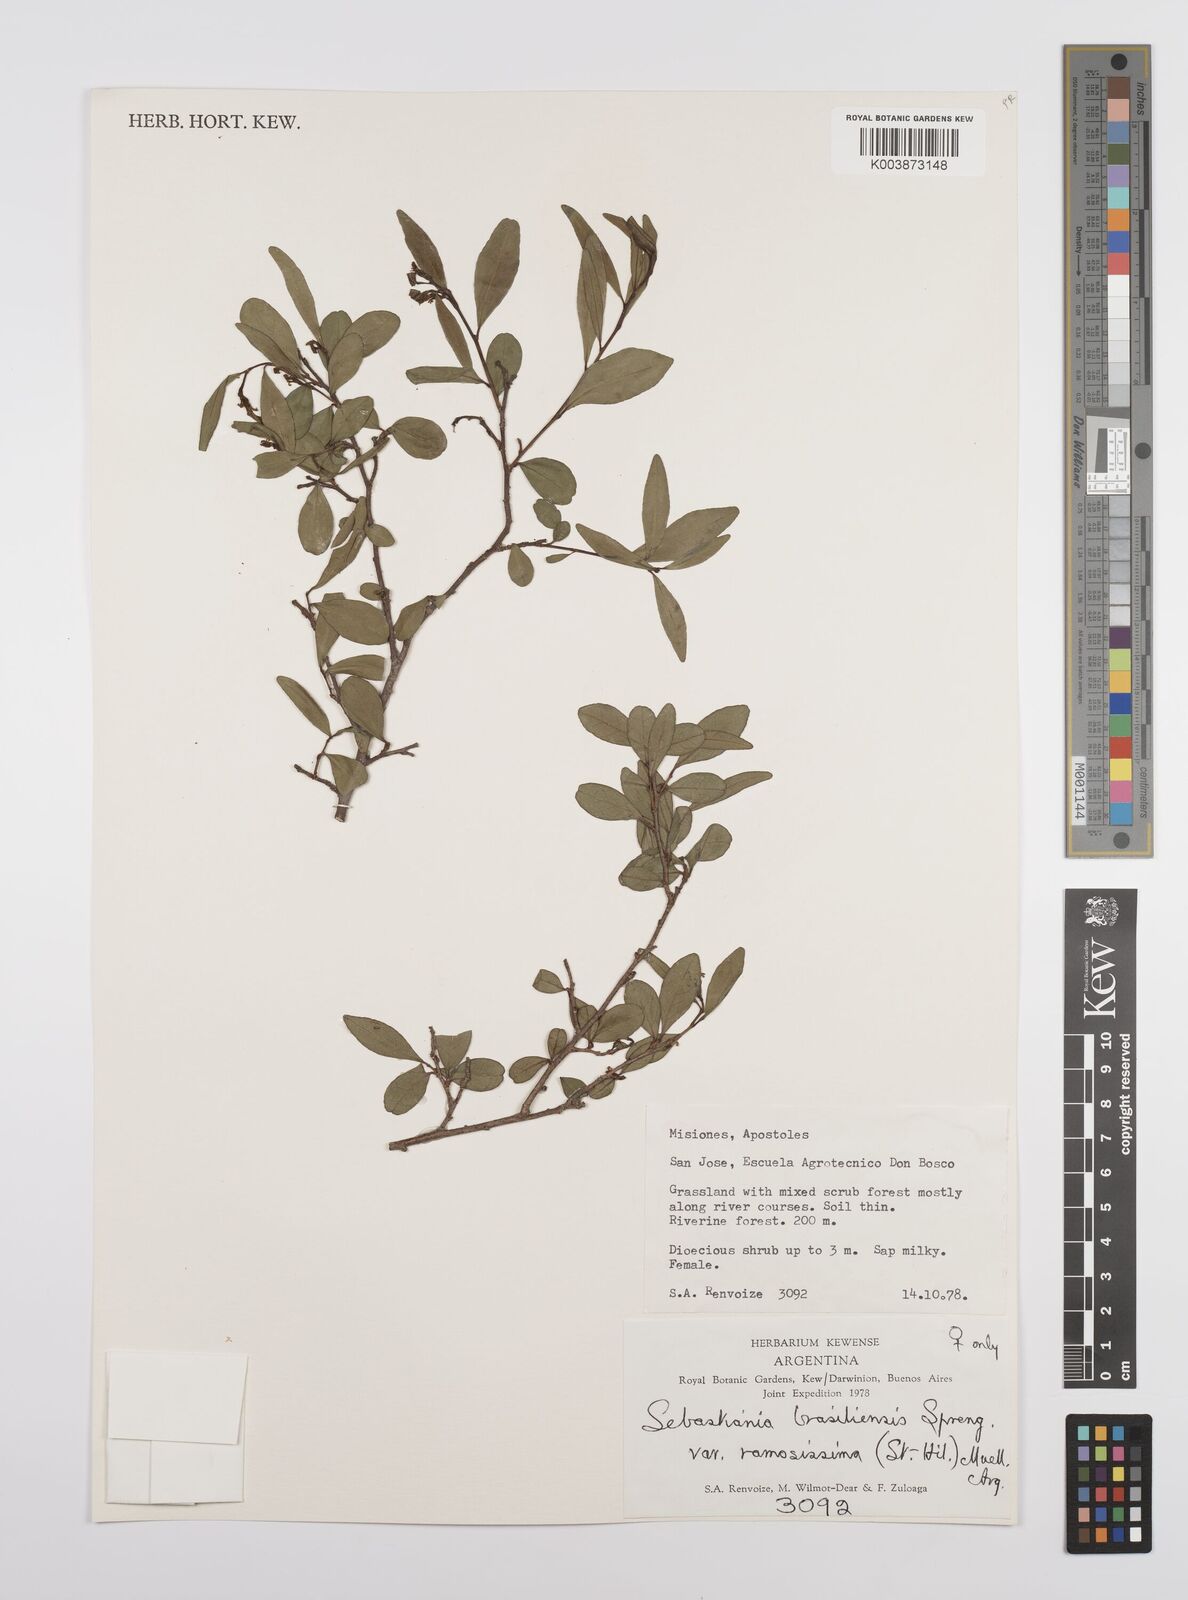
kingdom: Plantae
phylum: Tracheophyta
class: Magnoliopsida
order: Malpighiales
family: Euphorbiaceae
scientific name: Euphorbiaceae
